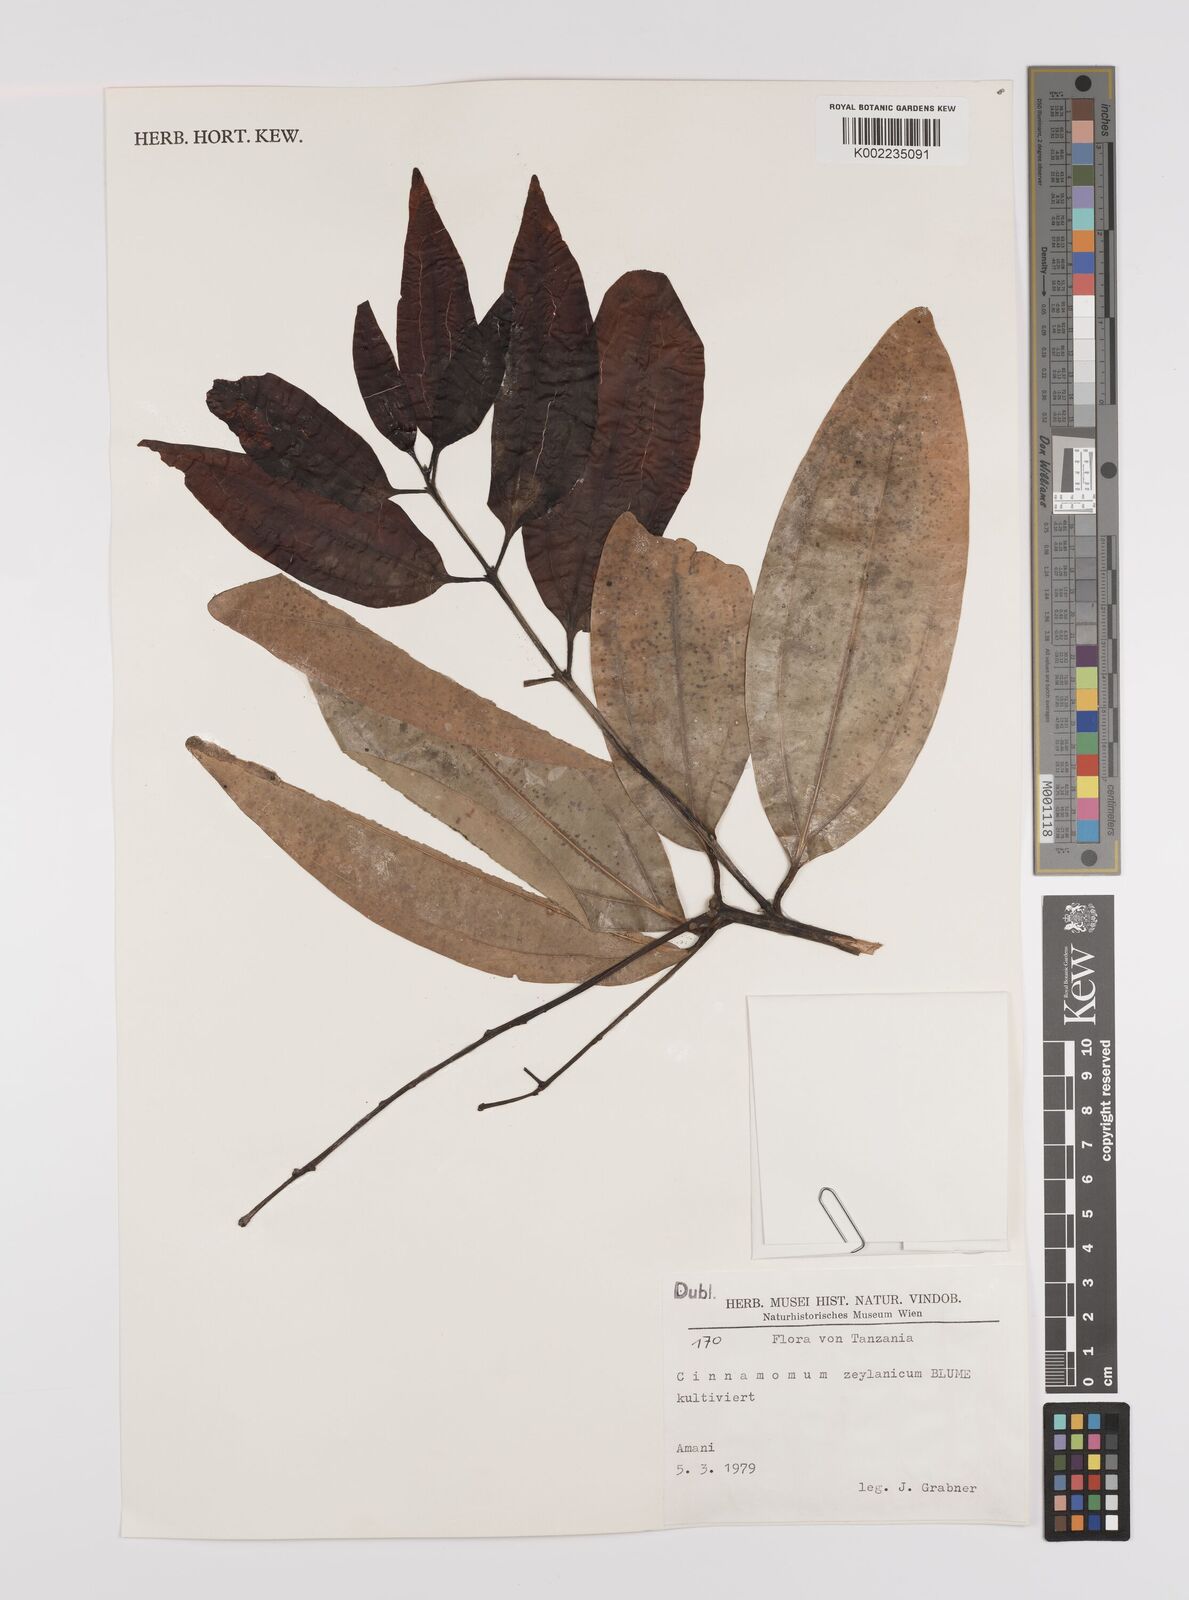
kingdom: Plantae
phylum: Tracheophyta
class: Magnoliopsida
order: Laurales
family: Lauraceae
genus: Cinnamomum
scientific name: Cinnamomum verum
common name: Cinnamon
